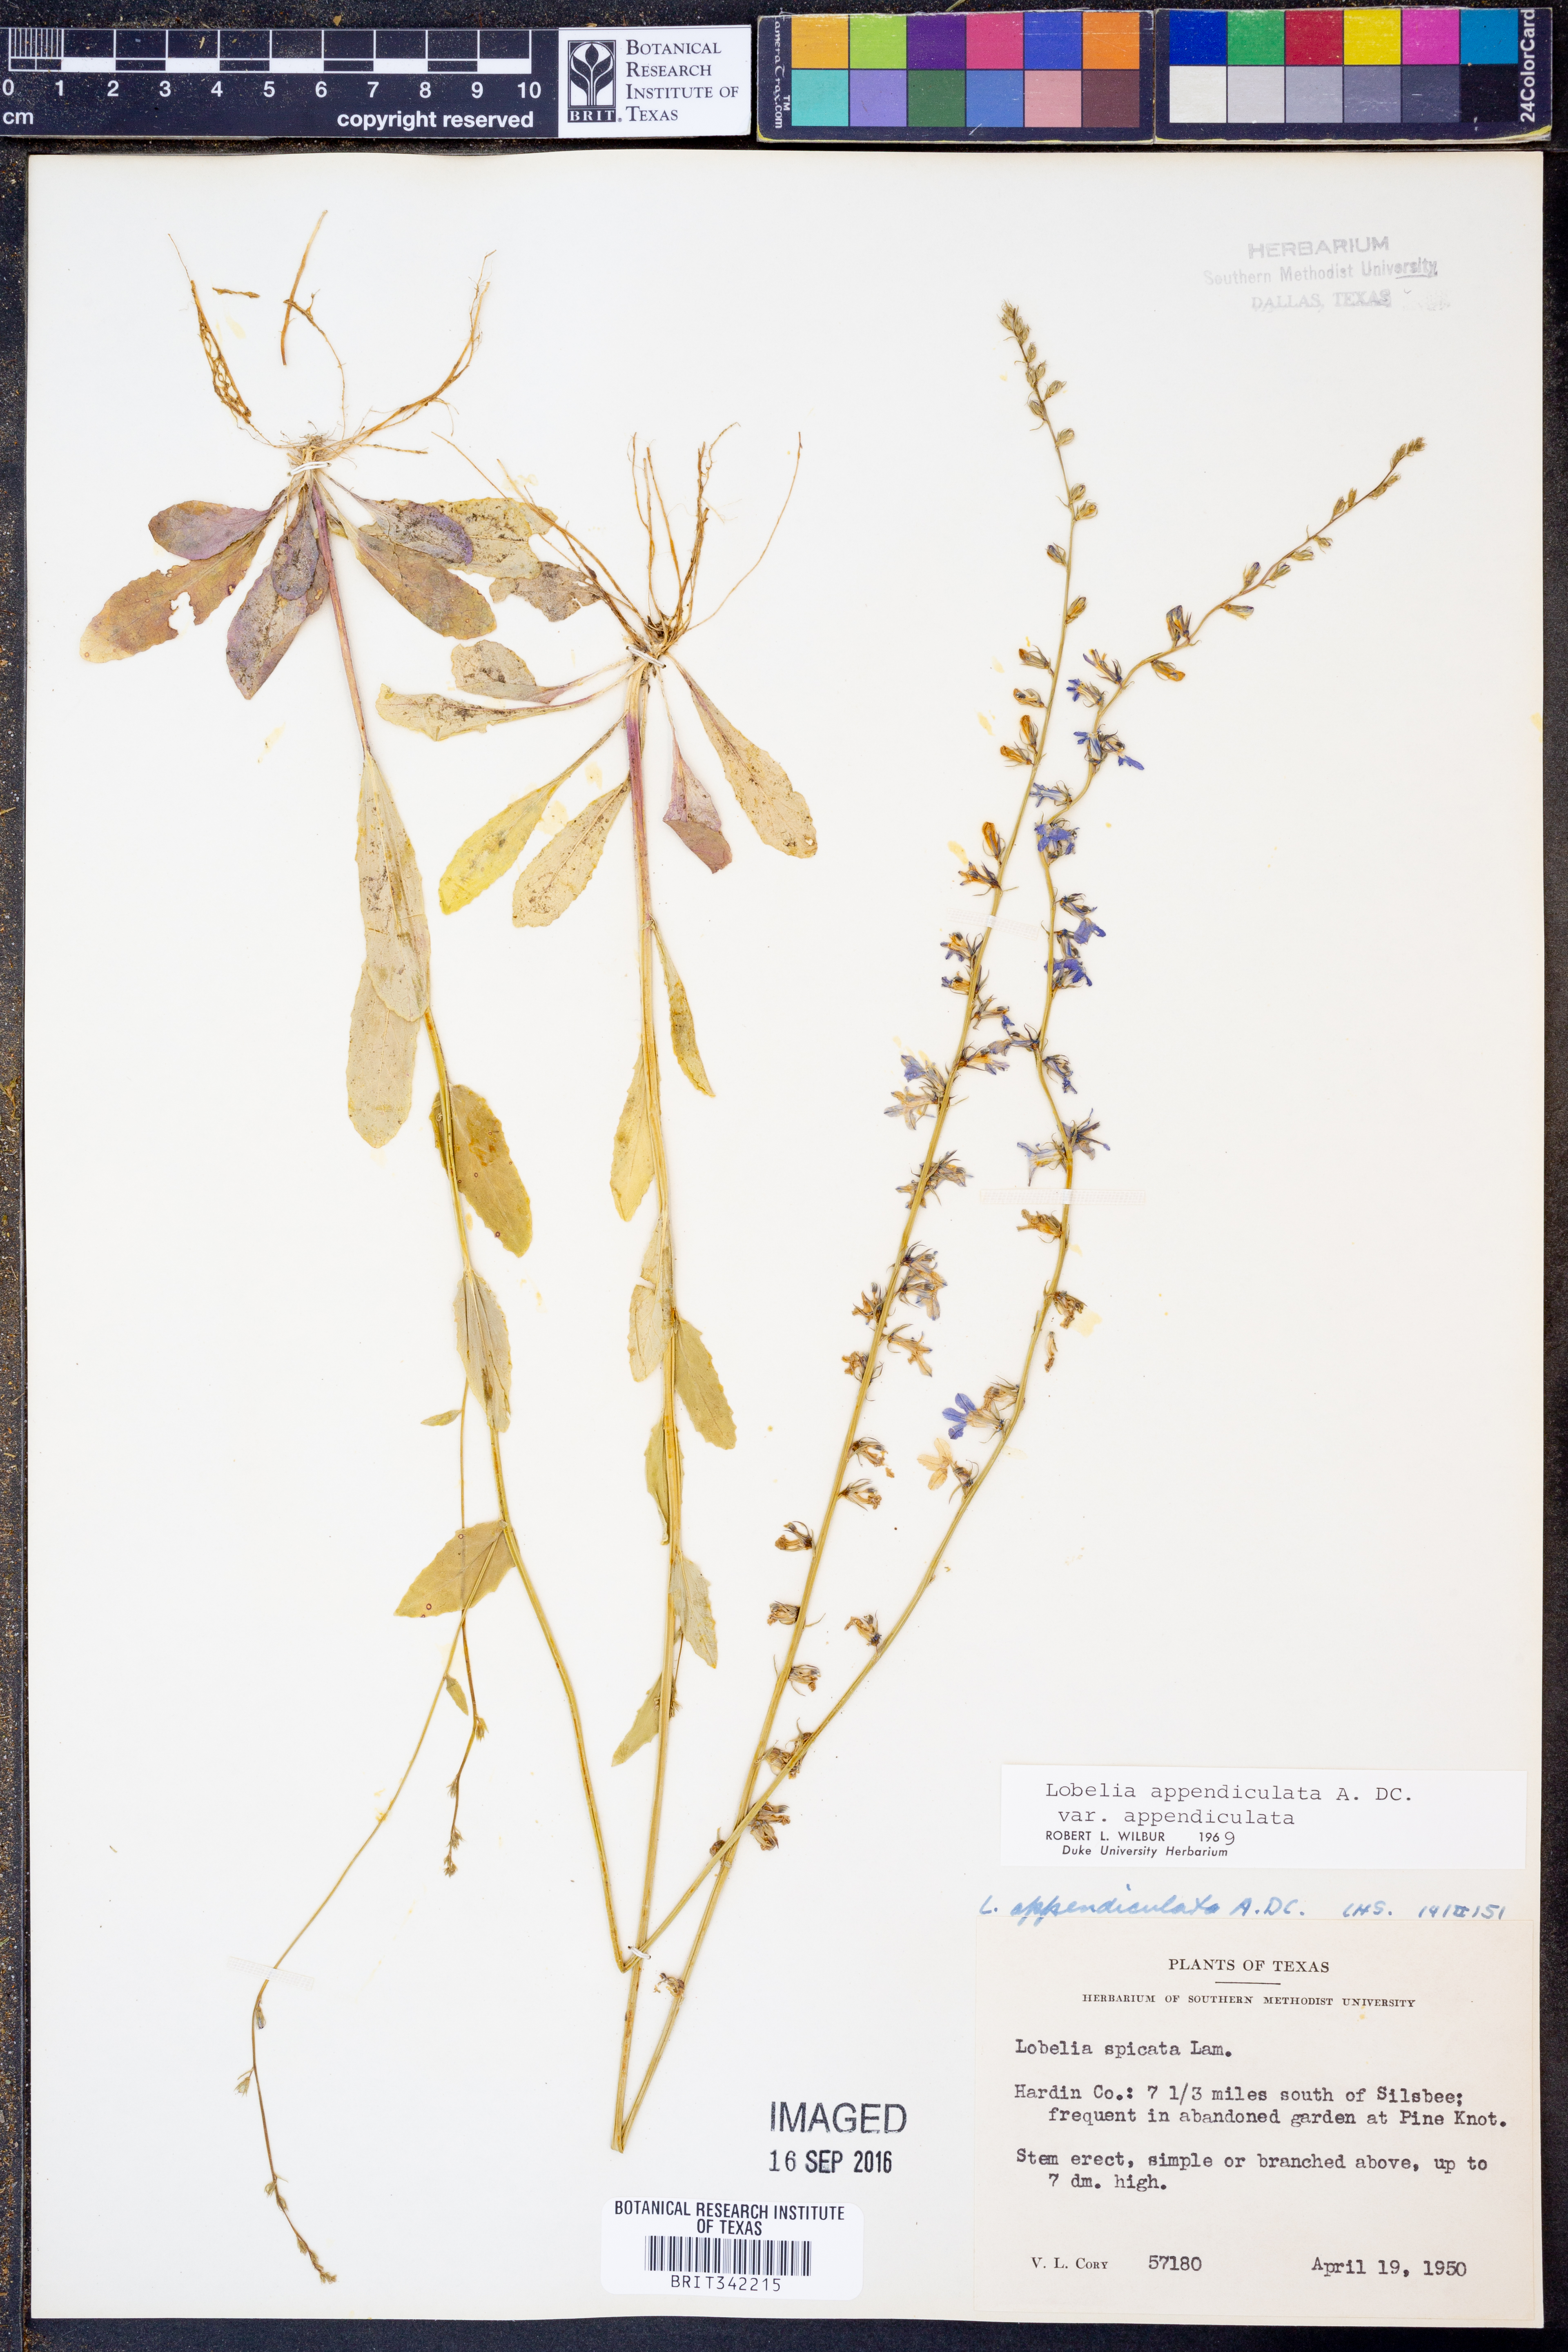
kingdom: Plantae
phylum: Tracheophyta
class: Magnoliopsida
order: Asterales
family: Campanulaceae
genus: Lobelia
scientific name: Lobelia appendiculata
